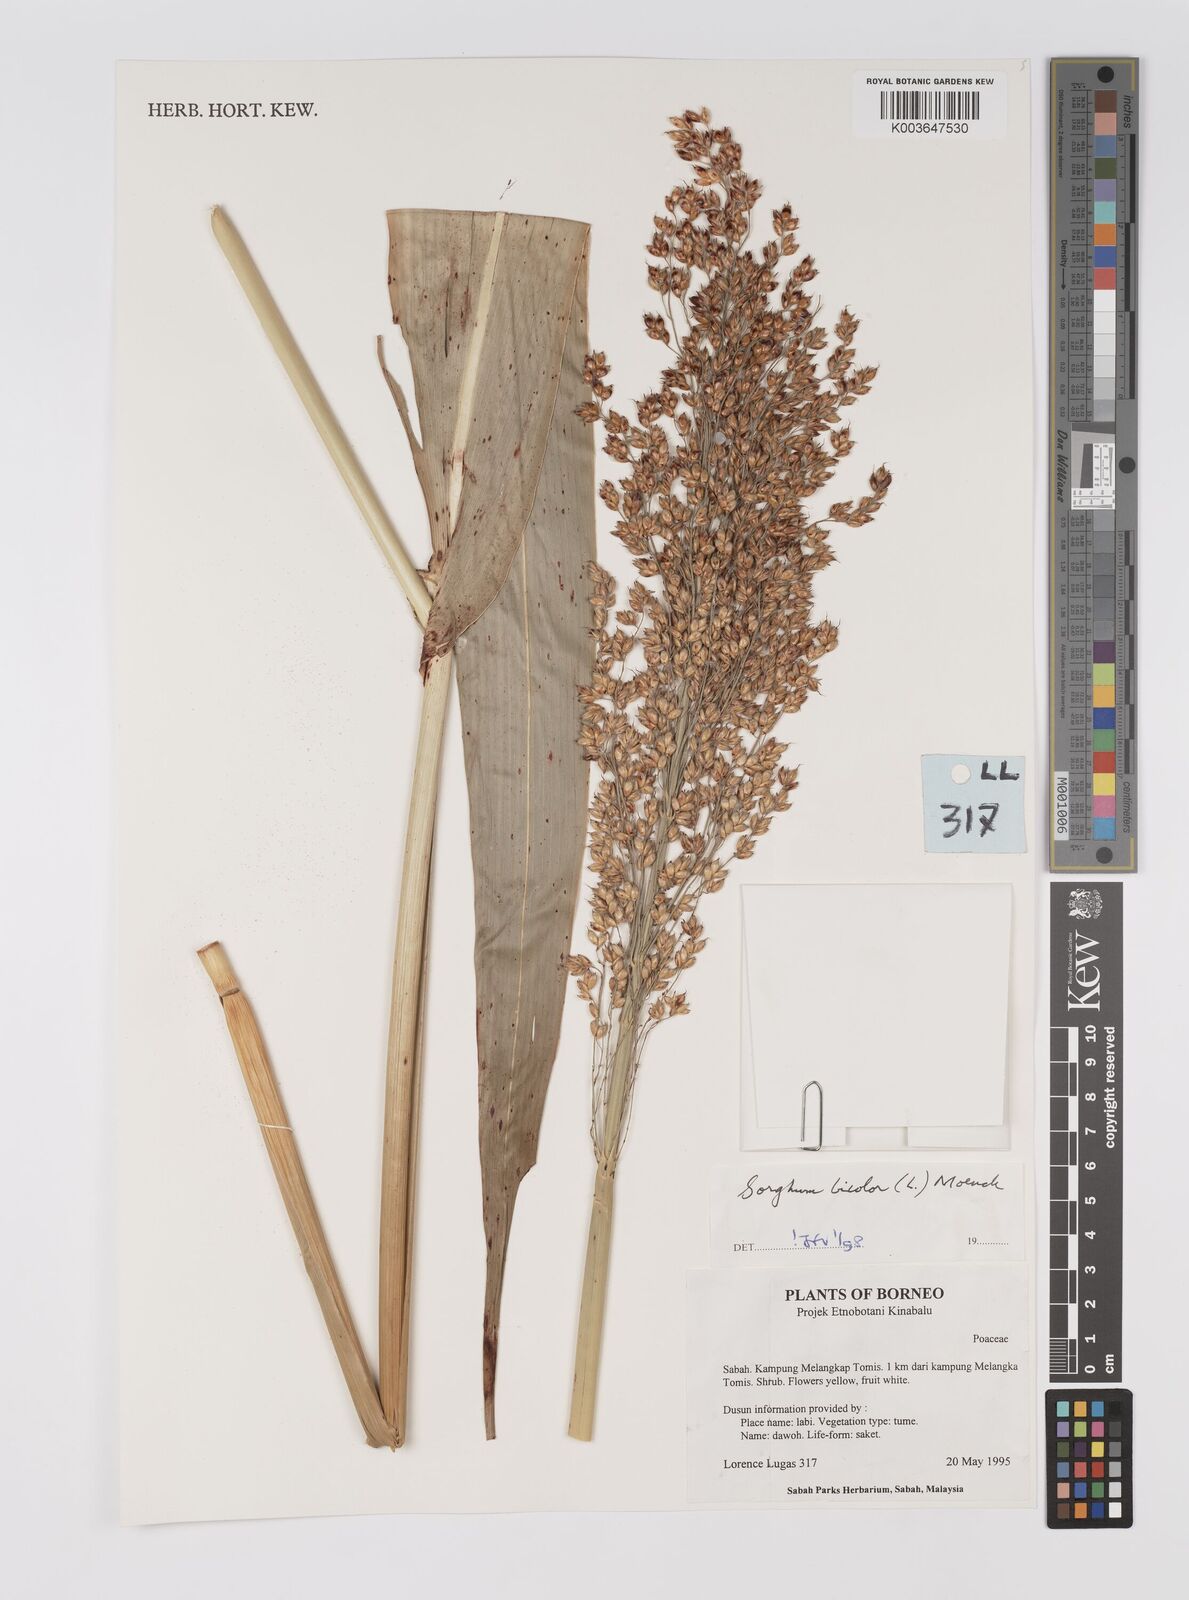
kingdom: Plantae
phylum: Tracheophyta
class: Liliopsida
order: Poales
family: Poaceae
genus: Hyparrhenia
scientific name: Hyparrhenia dichroa
